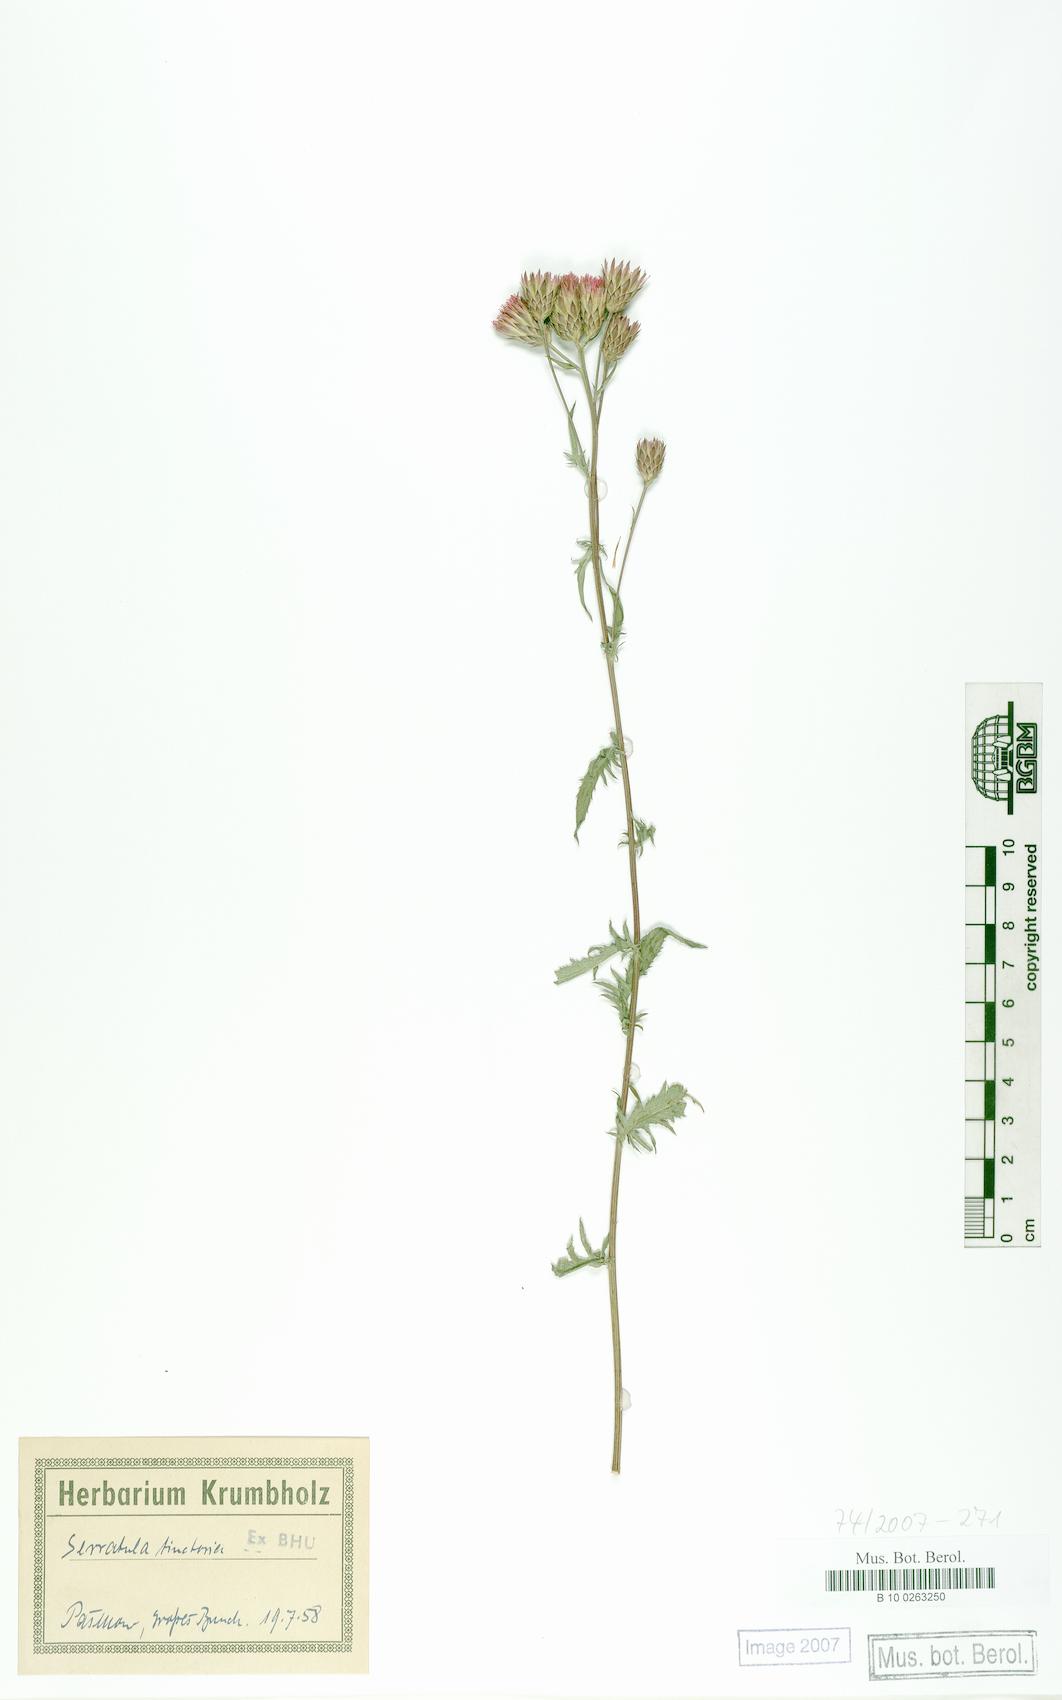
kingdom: Plantae
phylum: Tracheophyta
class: Magnoliopsida
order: Asterales
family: Asteraceae
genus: Serratula
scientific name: Serratula tinctoria
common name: Saw-wort
